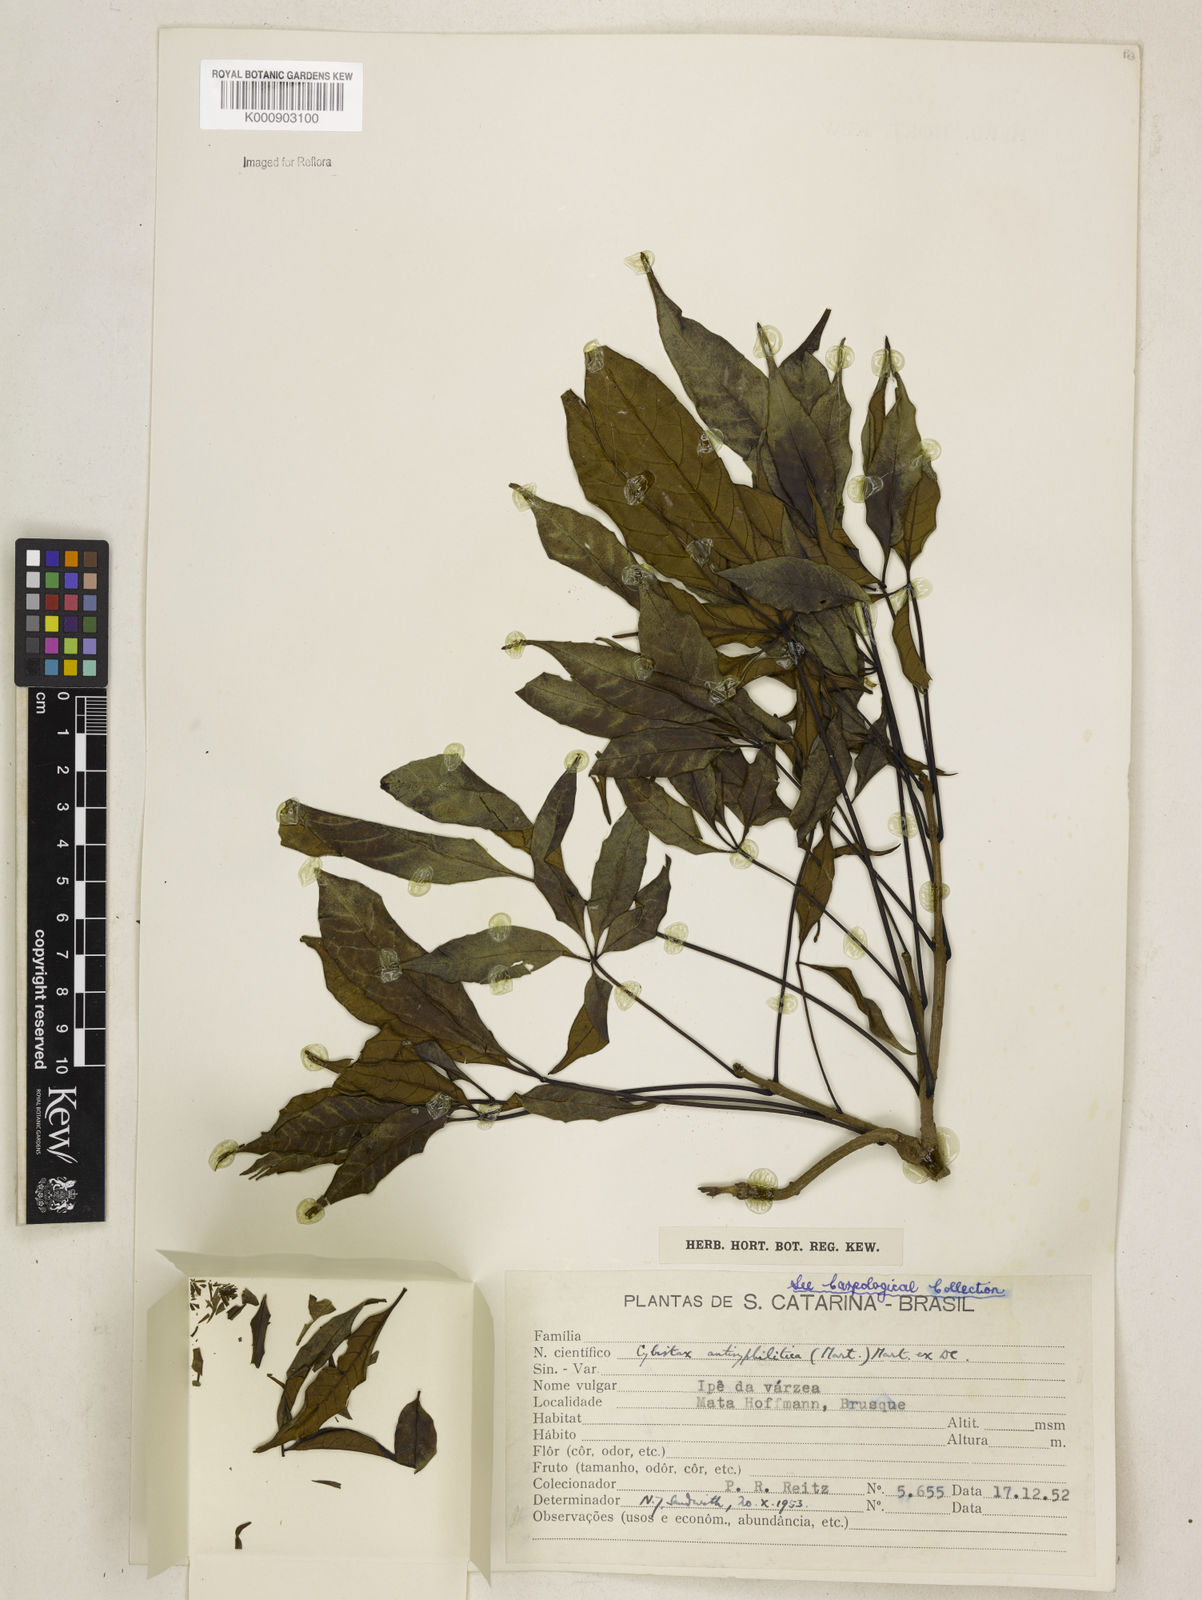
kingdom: Plantae
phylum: Tracheophyta
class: Magnoliopsida
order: Lamiales
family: Bignoniaceae
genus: Cybistax
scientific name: Cybistax antisyphilitica
